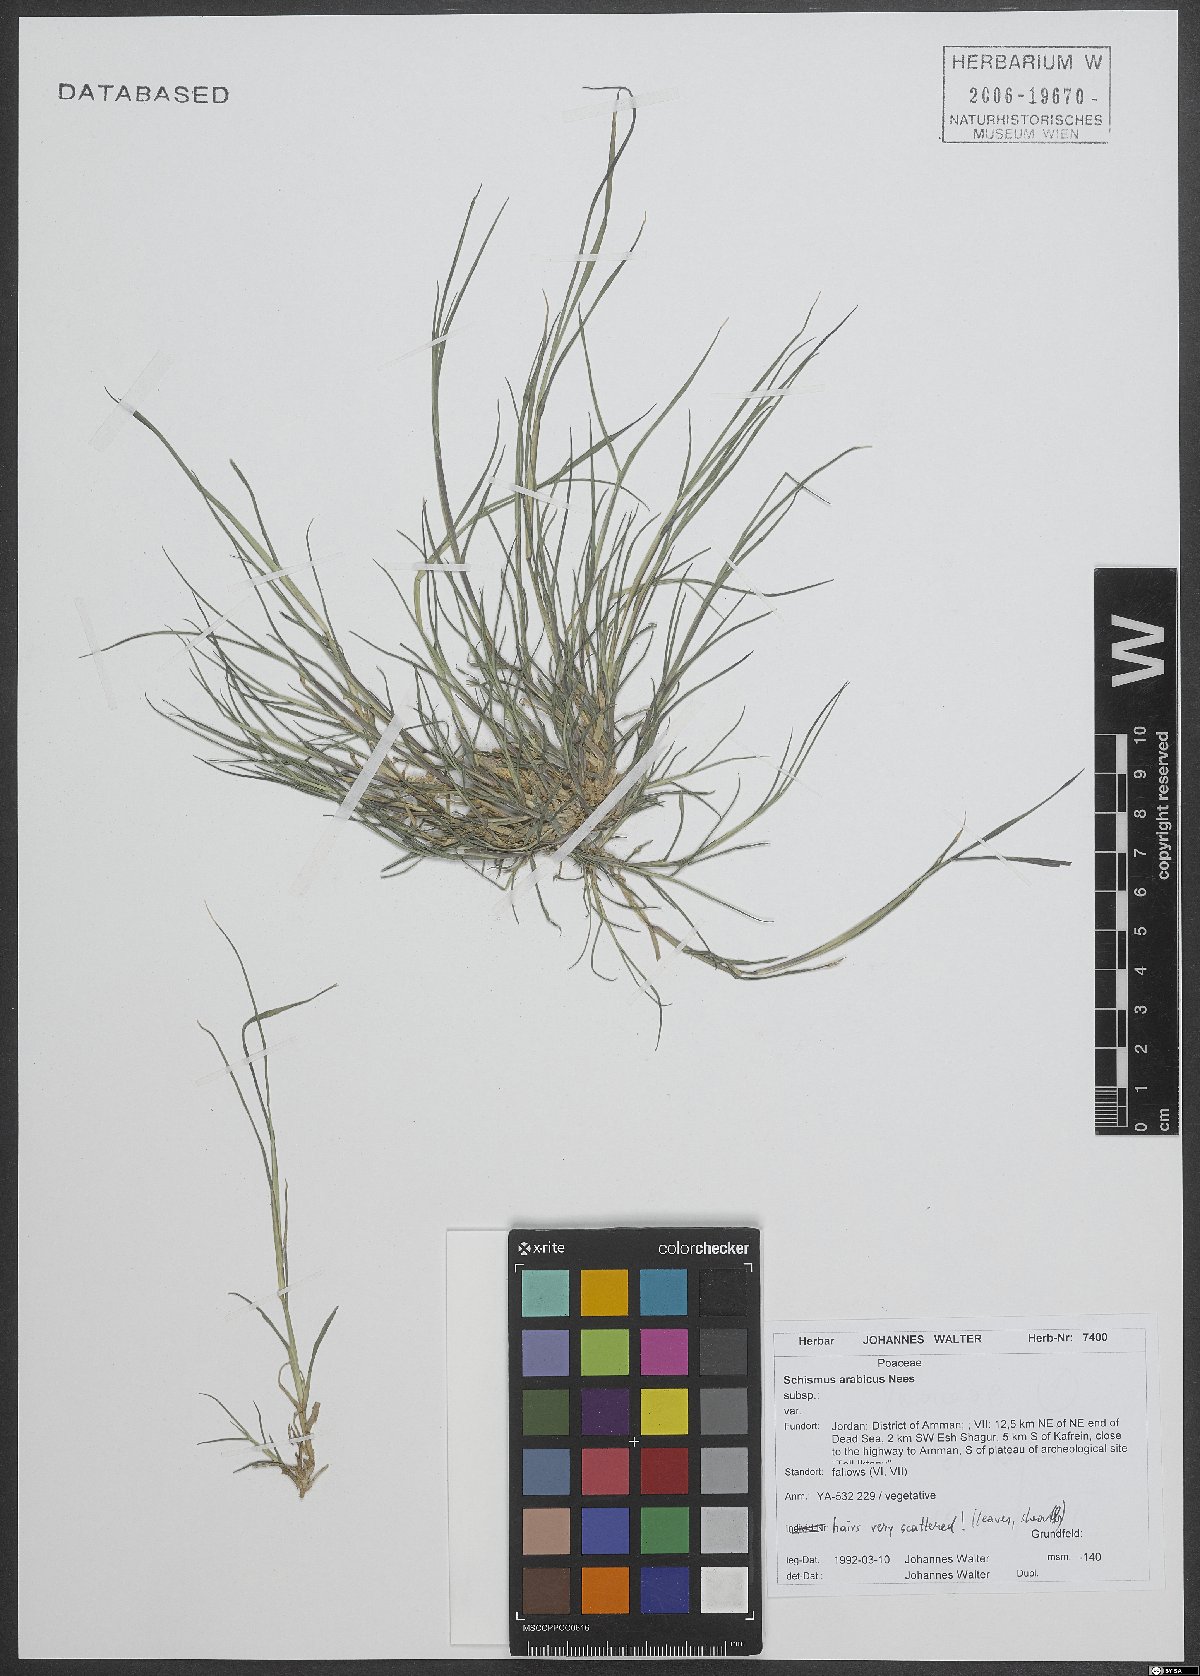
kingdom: Plantae
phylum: Tracheophyta
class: Liliopsida
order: Poales
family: Poaceae
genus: Schismus
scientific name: Schismus arabicus
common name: Arabian schismus
